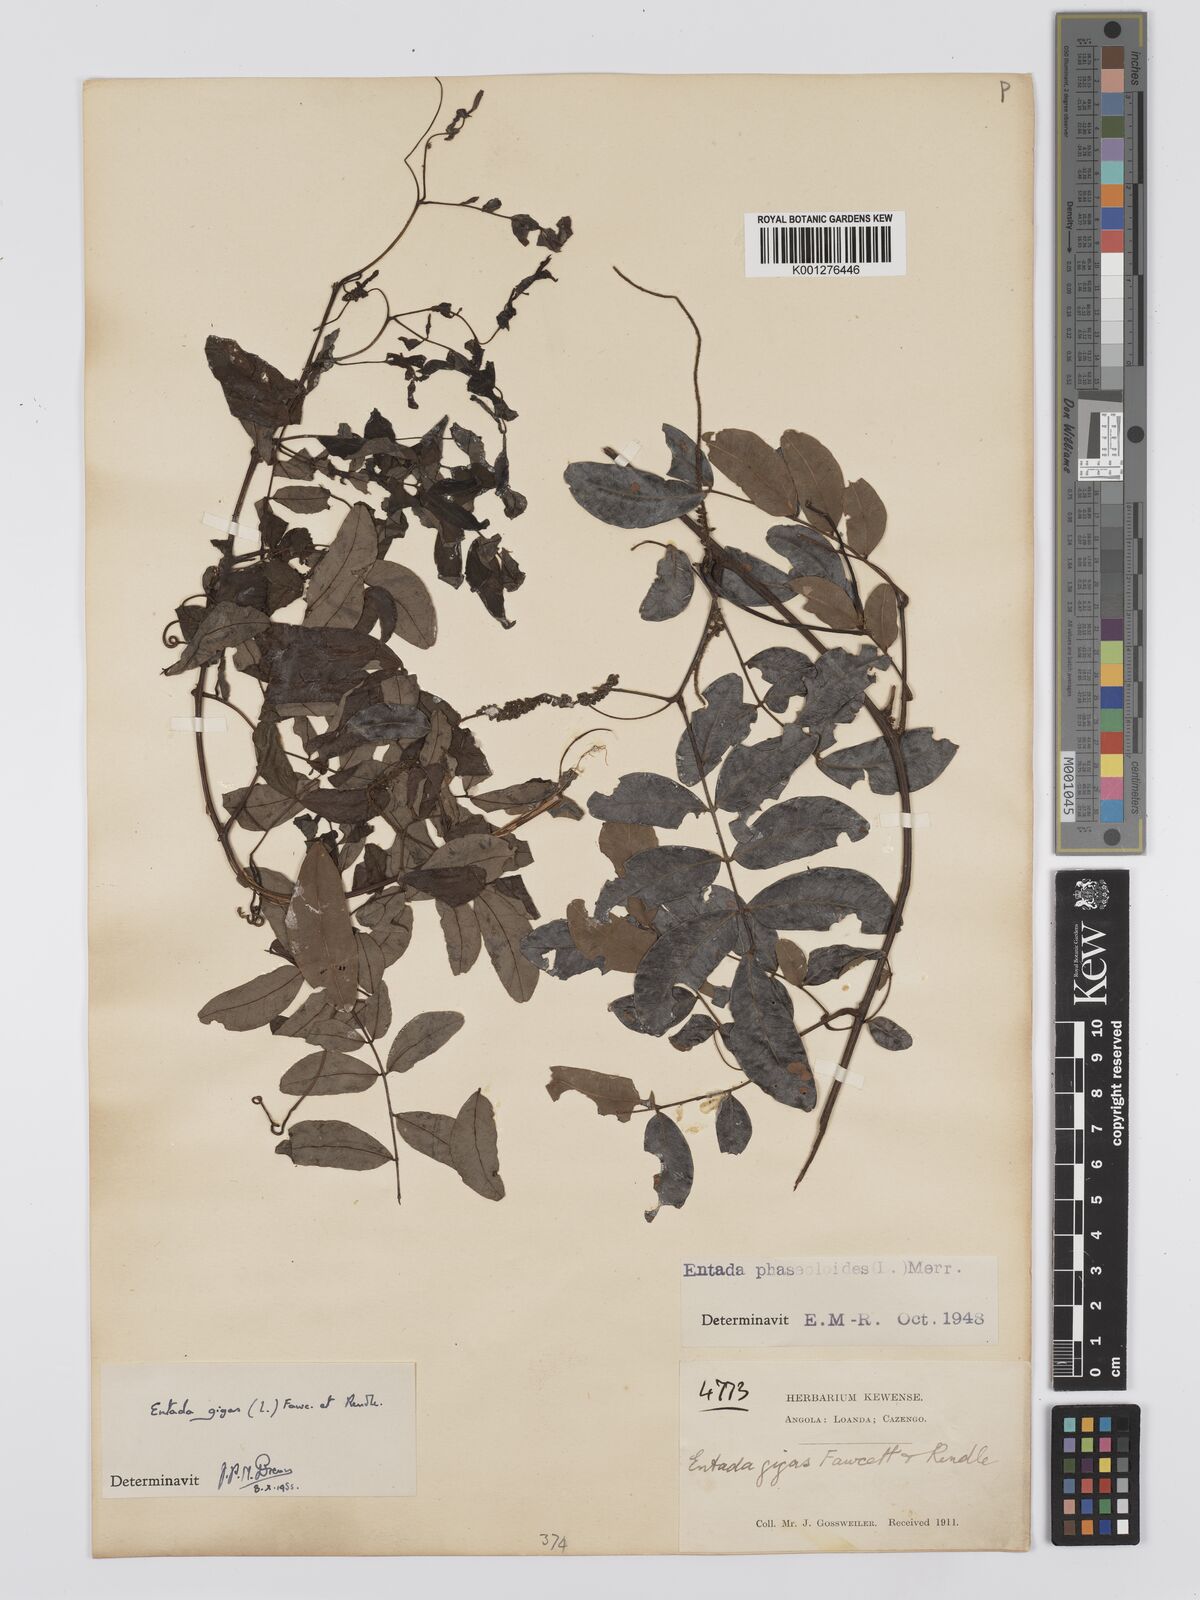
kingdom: Plantae
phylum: Tracheophyta
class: Magnoliopsida
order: Fabales
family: Fabaceae
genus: Entada
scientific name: Entada gigas
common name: Nicker-bean
